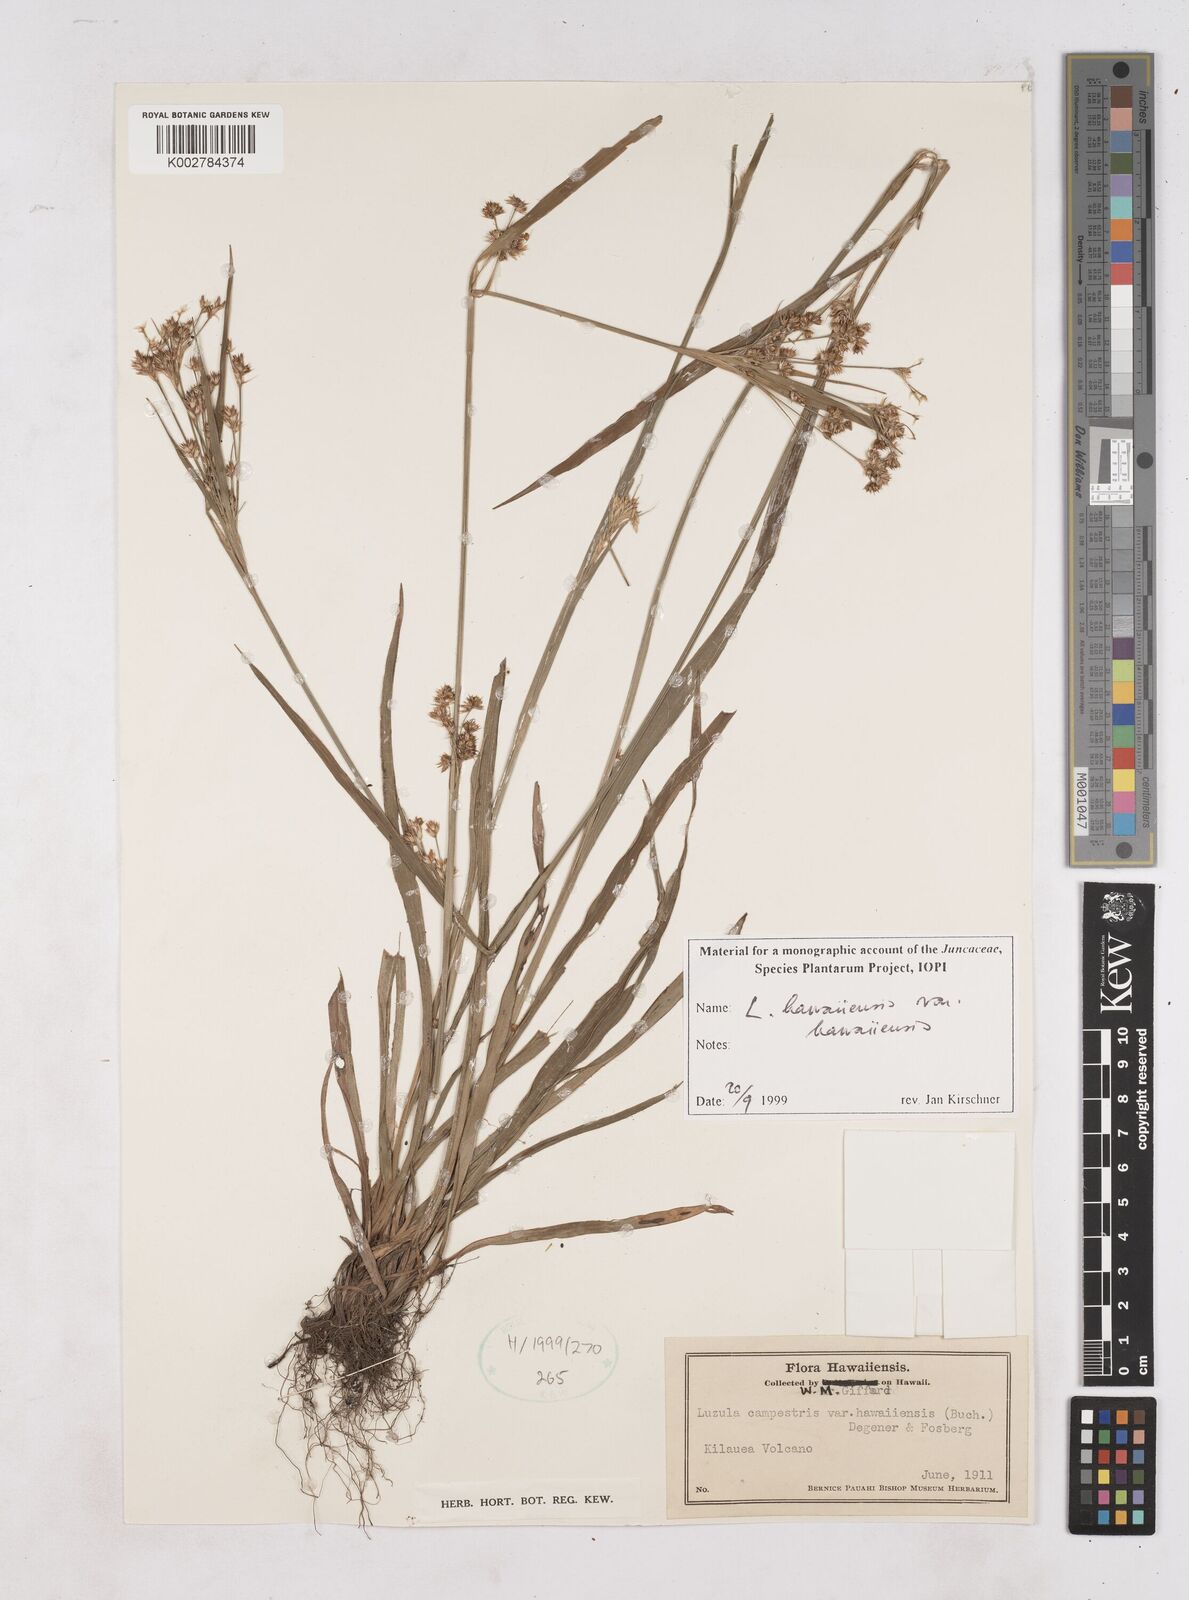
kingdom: Plantae
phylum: Tracheophyta
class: Liliopsida
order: Poales
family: Juncaceae
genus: Luzula
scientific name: Luzula campestris
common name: Field wood-rush
